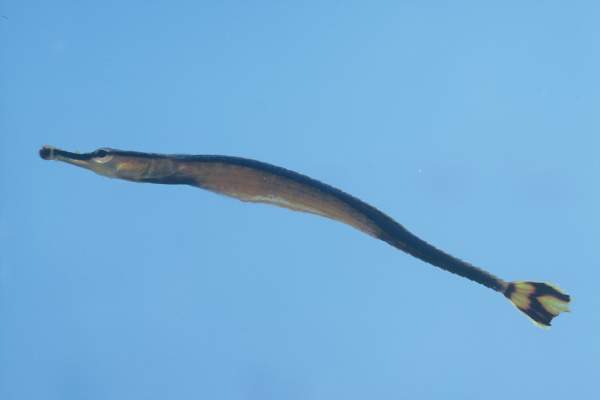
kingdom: Animalia
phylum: Chordata
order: Syngnathiformes
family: Syngnathidae
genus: Doryrhamphus
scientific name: Doryrhamphus excisus
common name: Bluestripe pipefish
